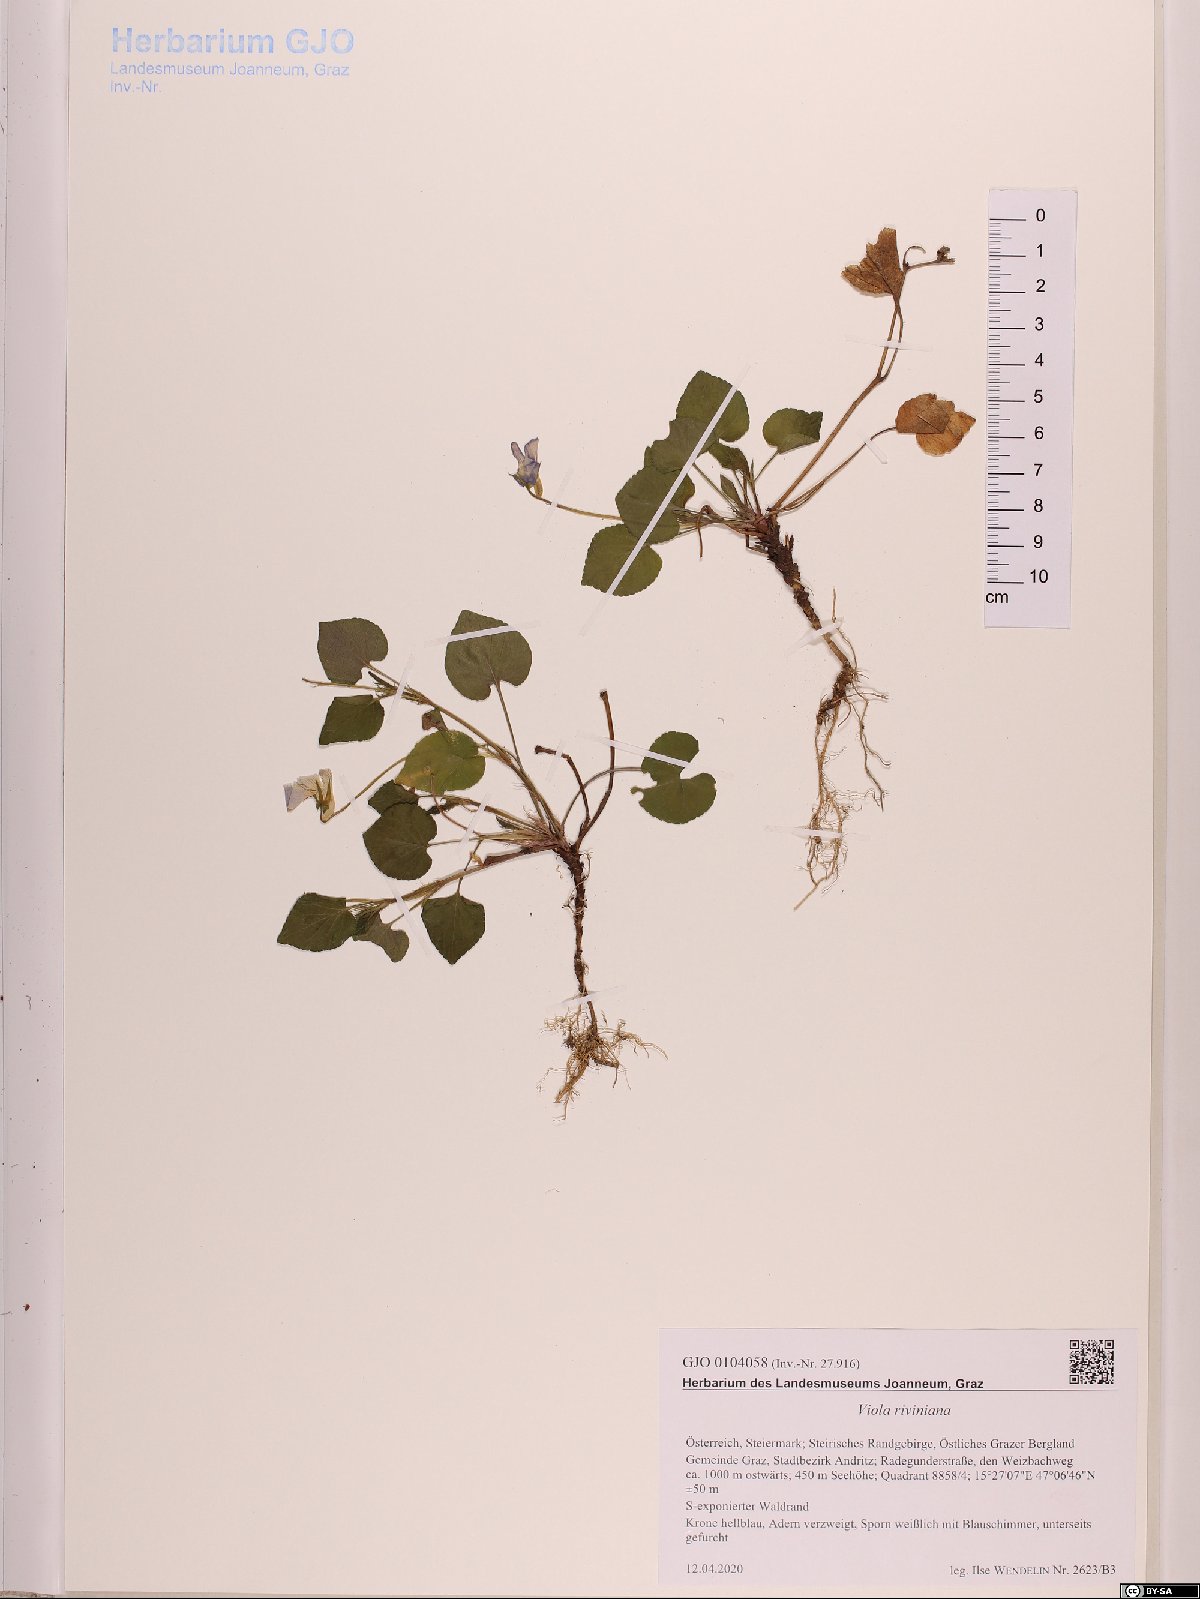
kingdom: Plantae
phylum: Tracheophyta
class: Magnoliopsida
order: Malpighiales
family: Violaceae
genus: Viola
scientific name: Viola riviniana
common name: Common dog-violet
